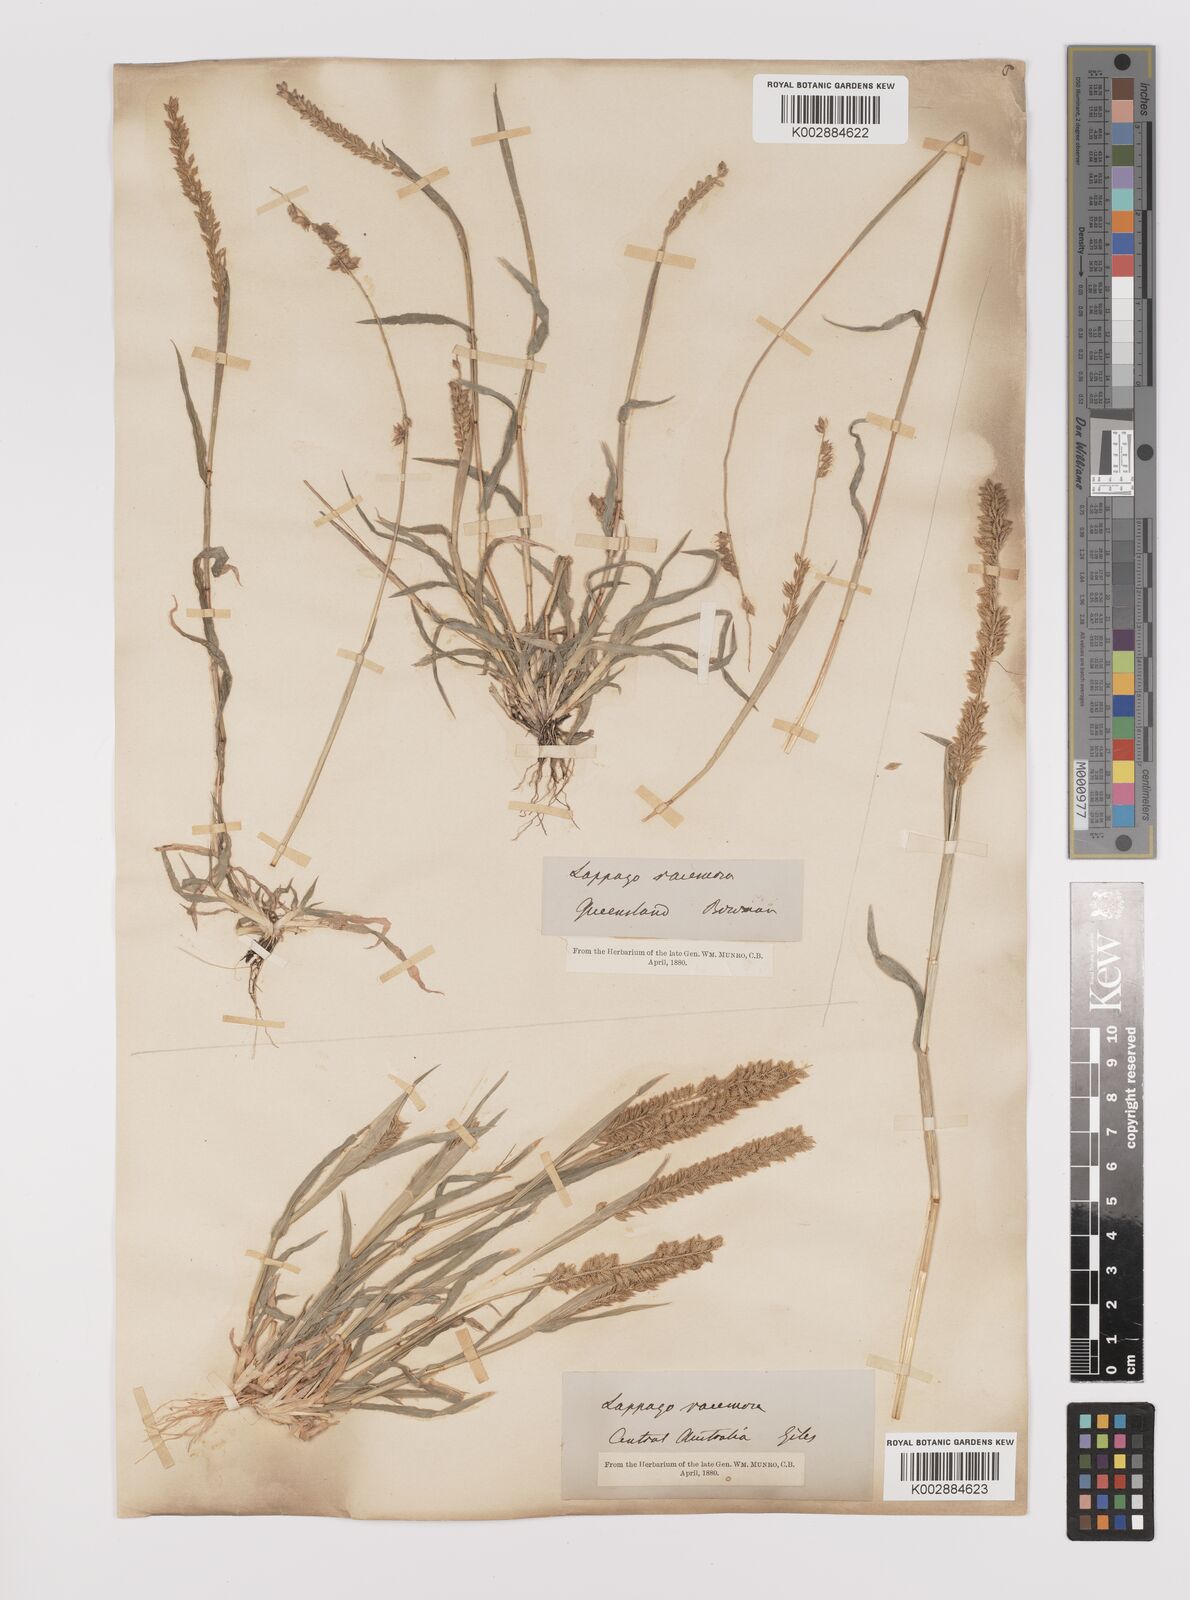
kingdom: Plantae
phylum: Tracheophyta
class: Liliopsida
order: Poales
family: Poaceae
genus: Tragus
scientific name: Tragus australianus
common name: Australian bur-grass
